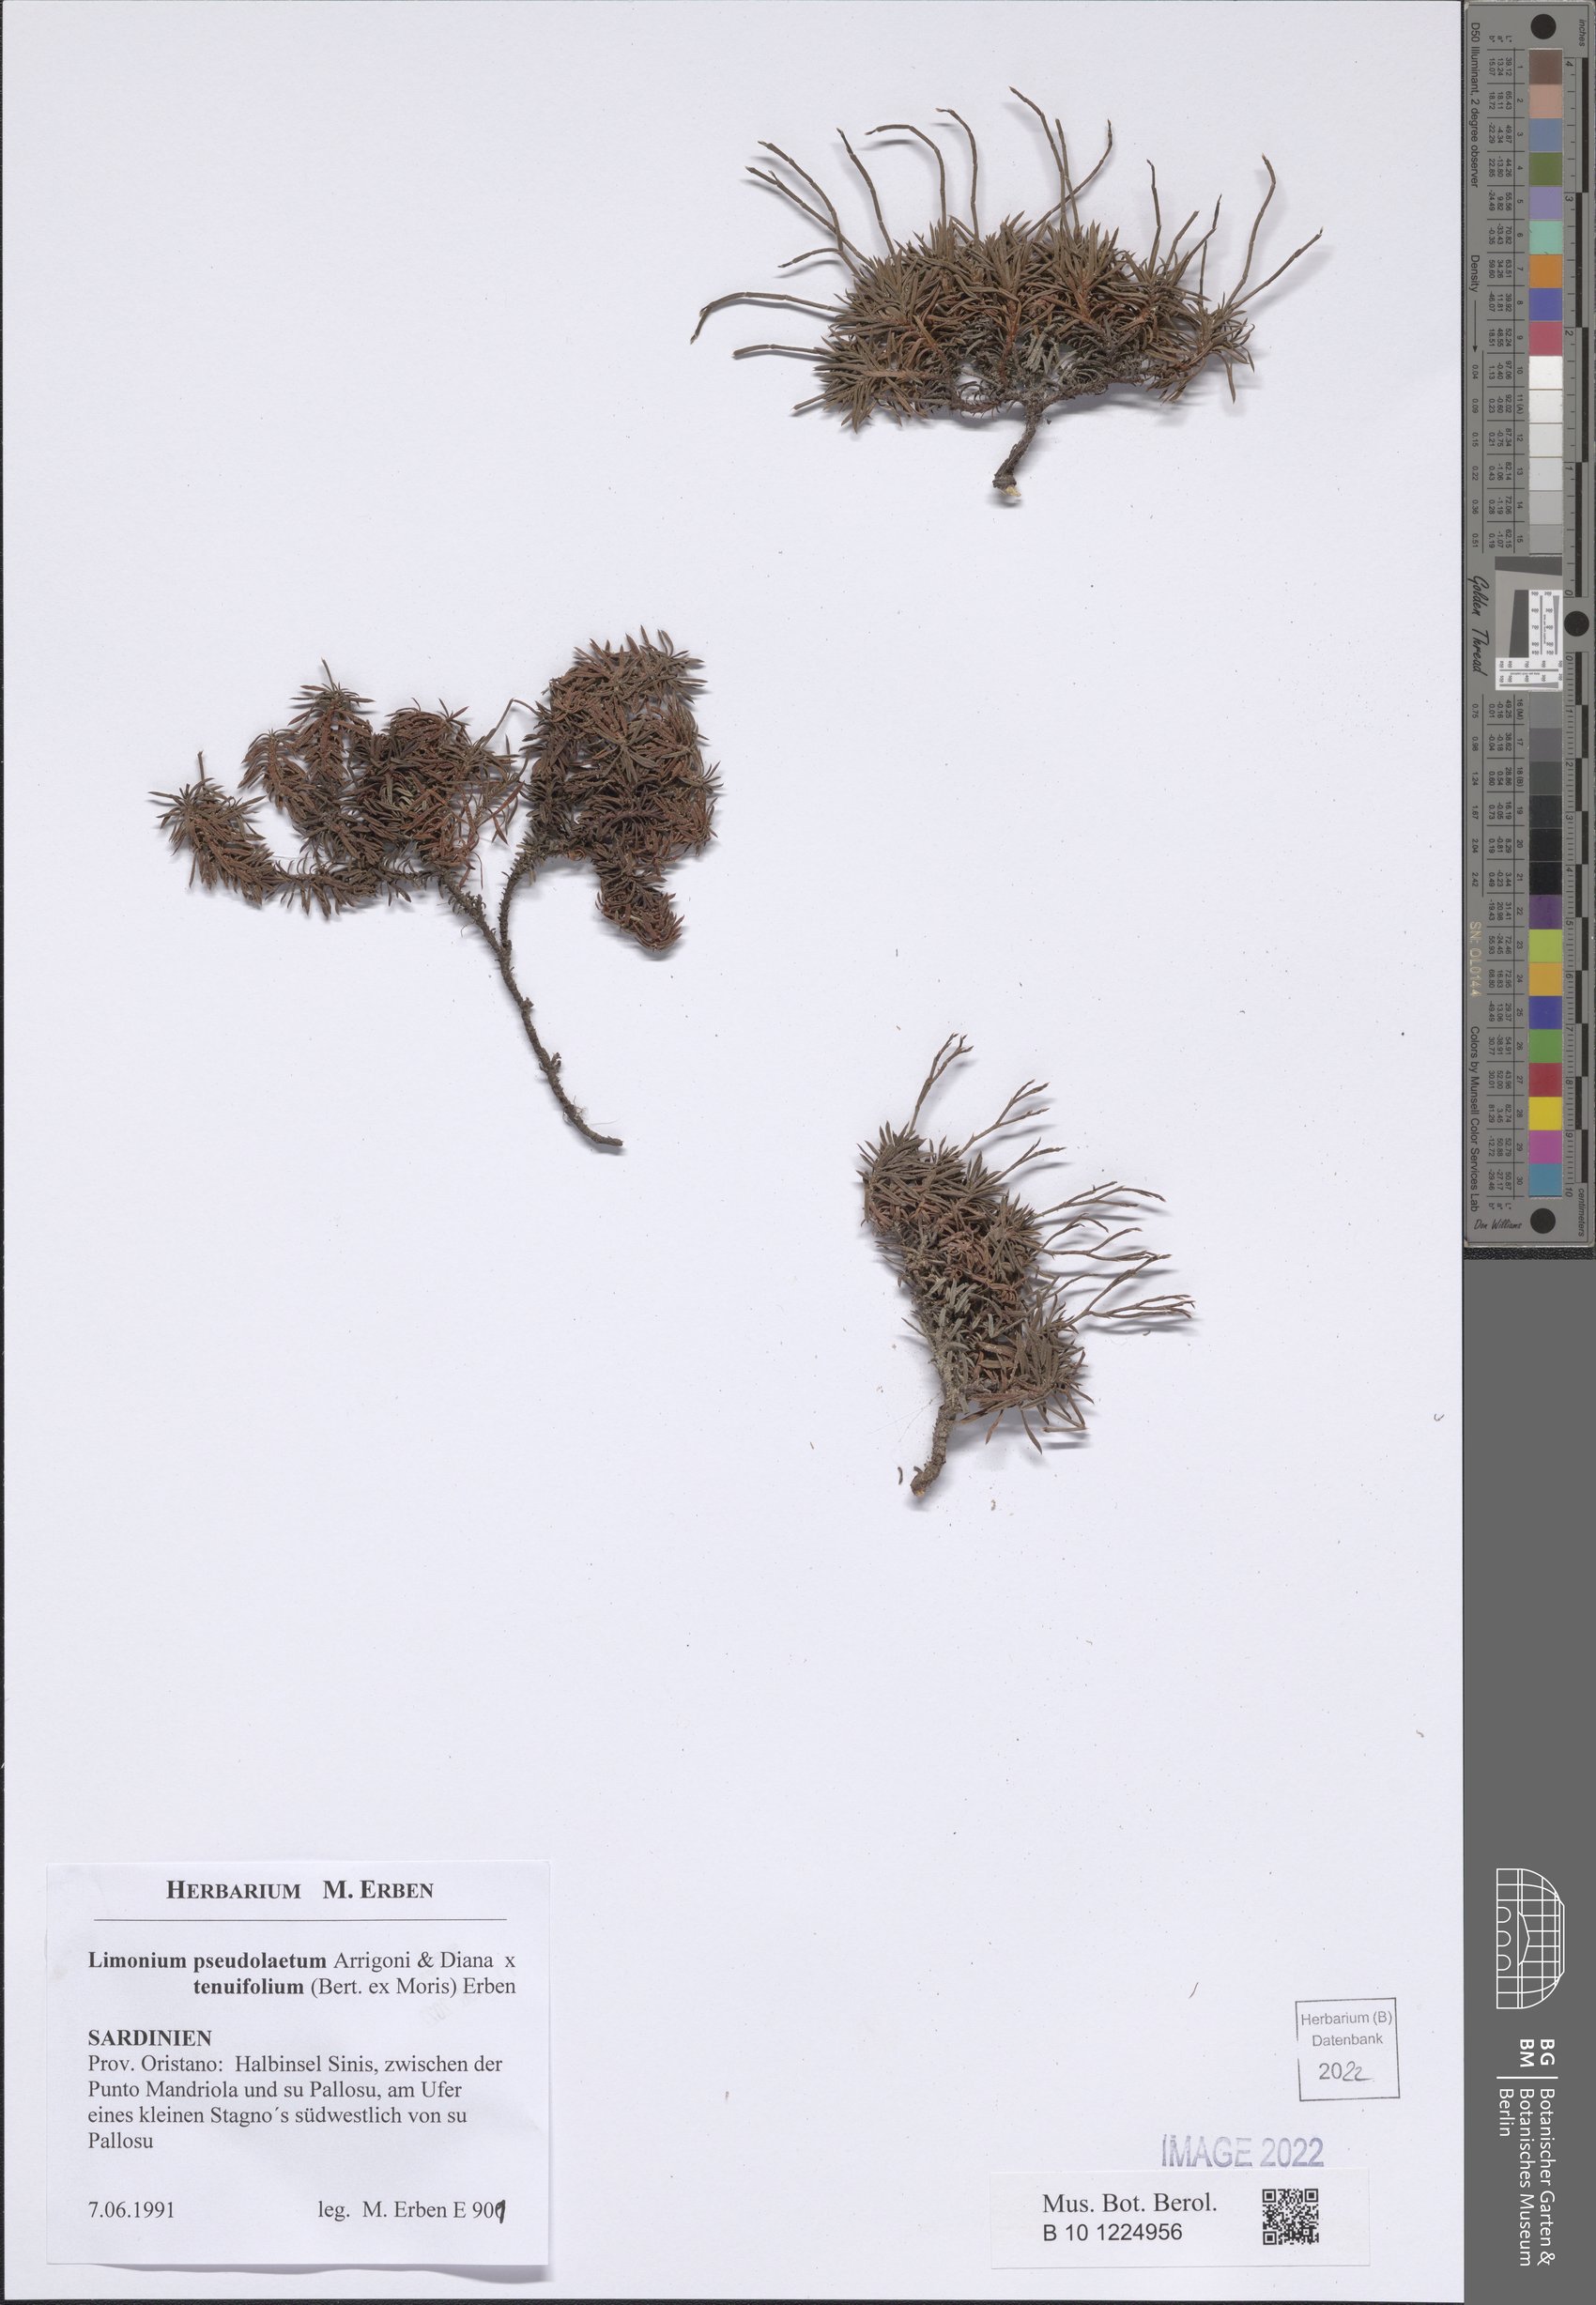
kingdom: Plantae
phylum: Tracheophyta
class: Magnoliopsida
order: Caryophyllales
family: Plumbaginaceae
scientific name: Plumbaginaceae
